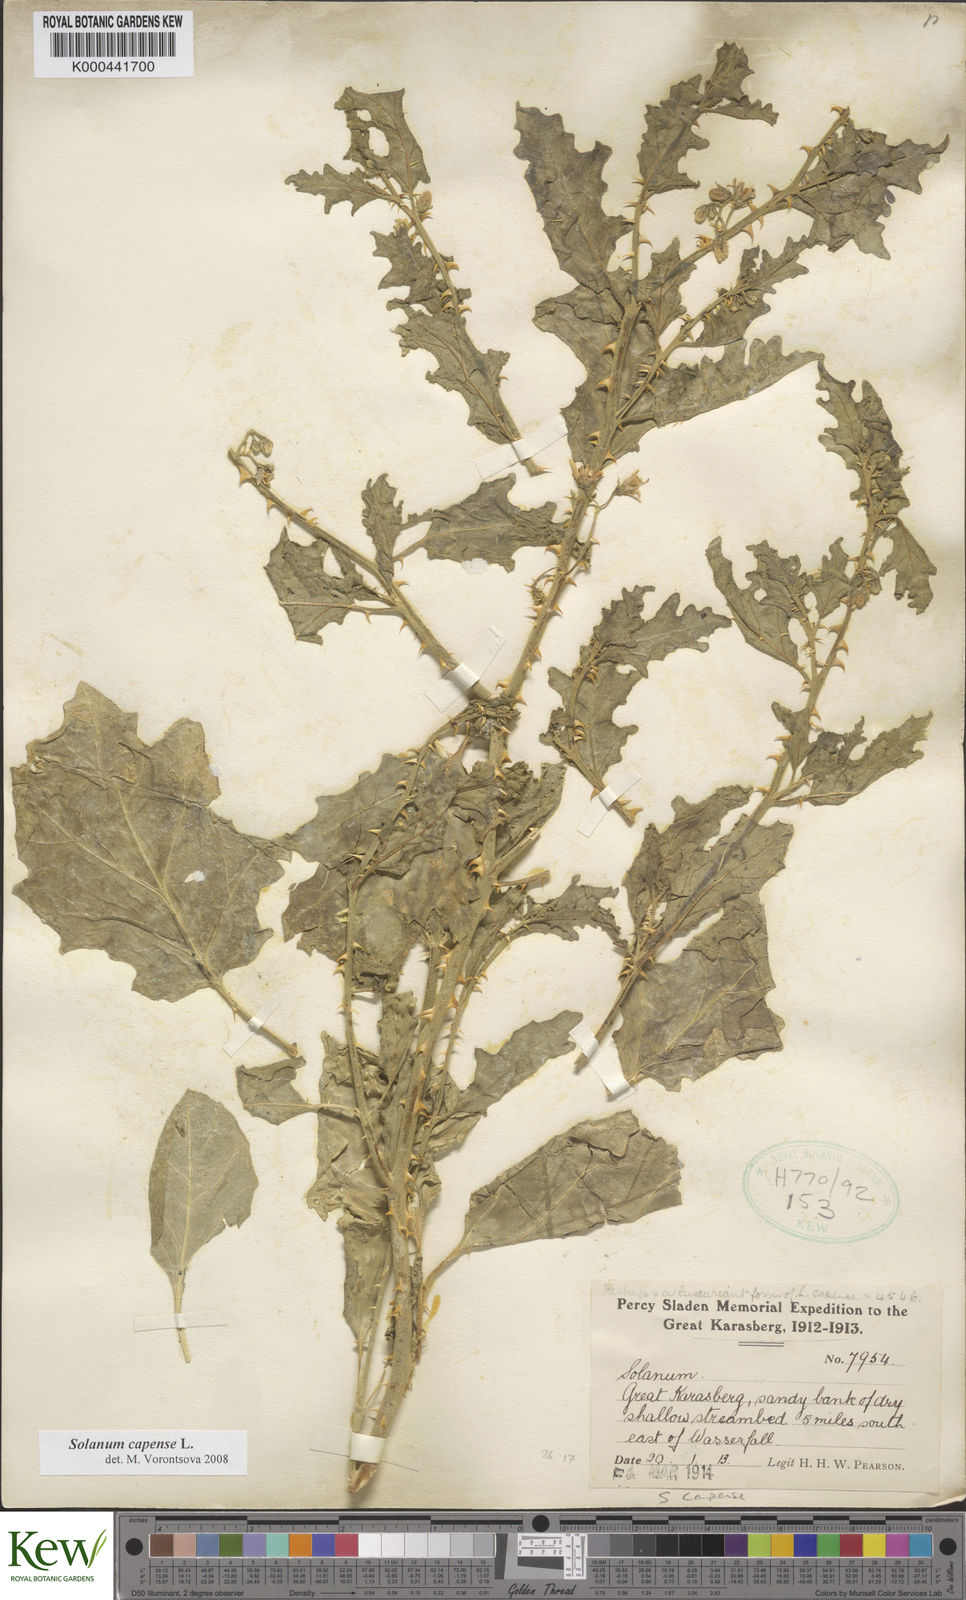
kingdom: Plantae
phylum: Tracheophyta
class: Magnoliopsida
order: Solanales
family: Solanaceae
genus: Solanum
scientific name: Solanum capense
